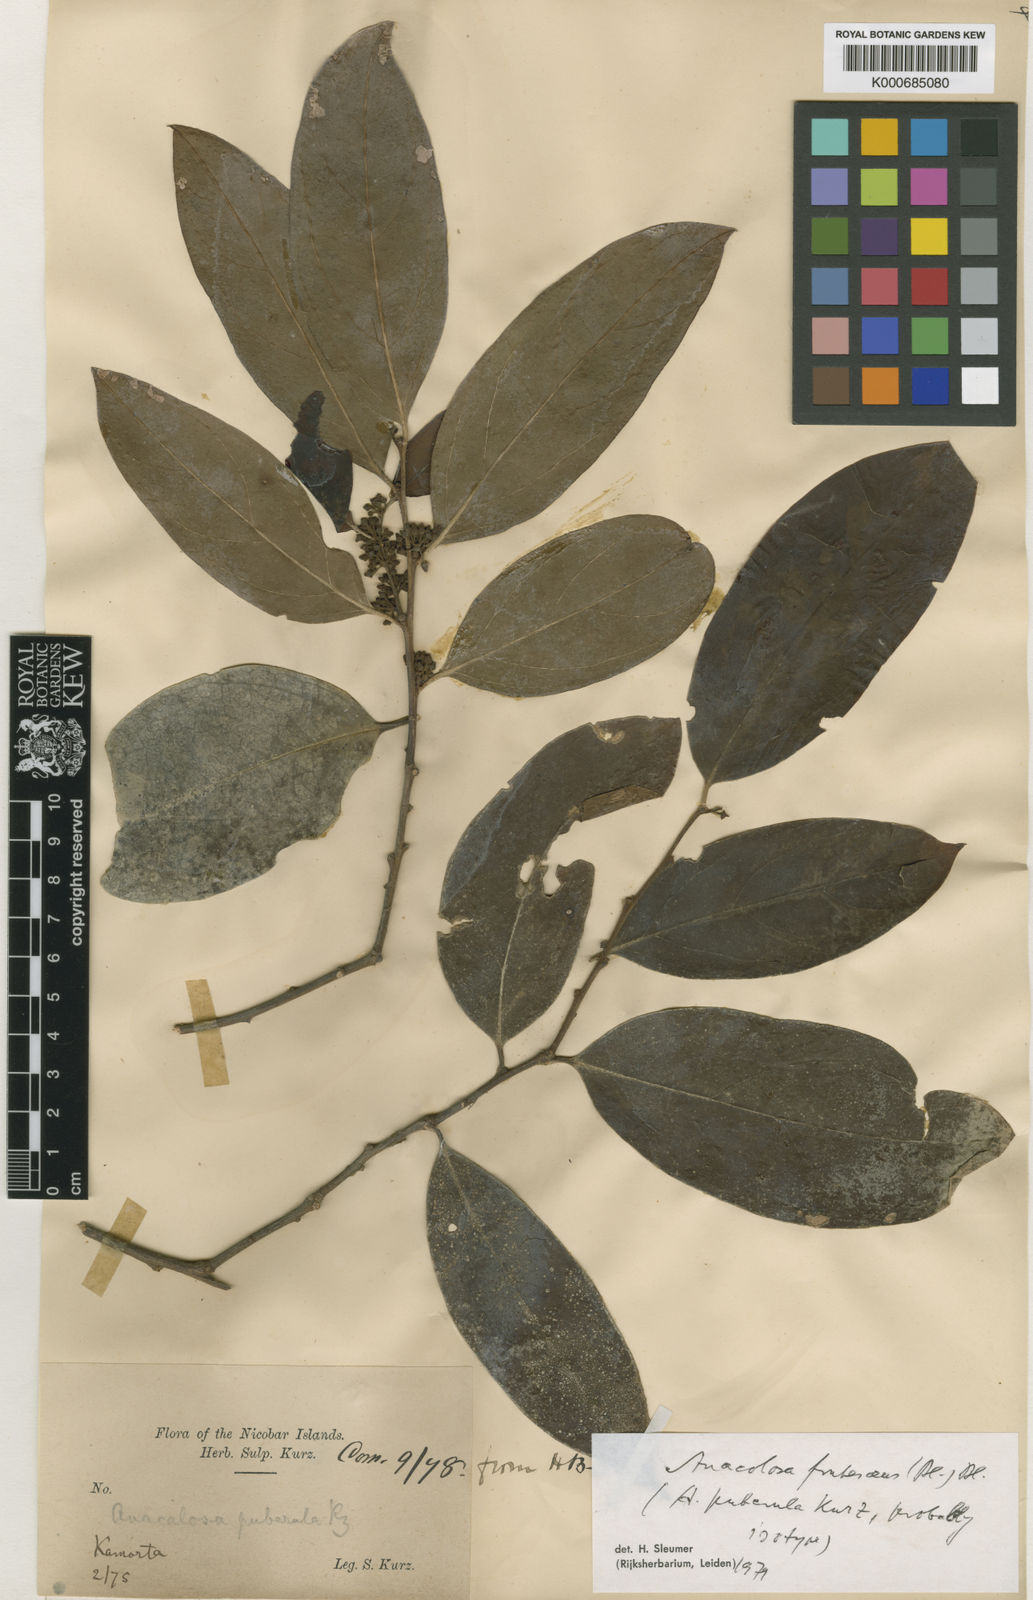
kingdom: Plantae
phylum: Tracheophyta
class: Magnoliopsida
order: Santalales
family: Aptandraceae
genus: Anacolosa
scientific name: Anacolosa frutescens
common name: Galo nut
